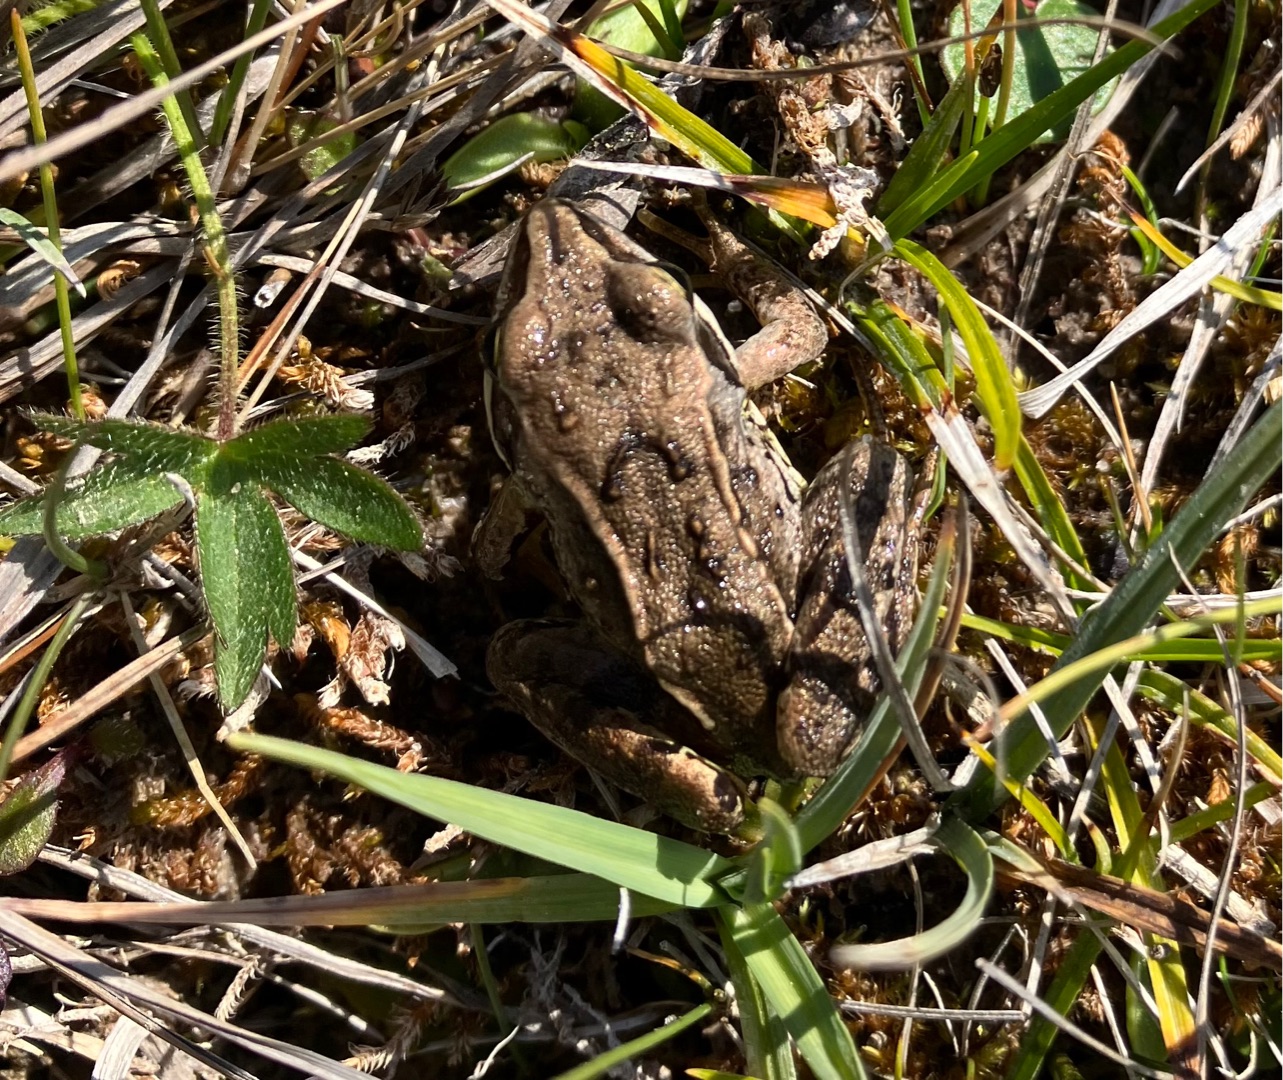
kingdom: Animalia
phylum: Chordata
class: Amphibia
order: Anura
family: Ranidae
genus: Rana
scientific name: Rana arvalis
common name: Spidssnudet frø
